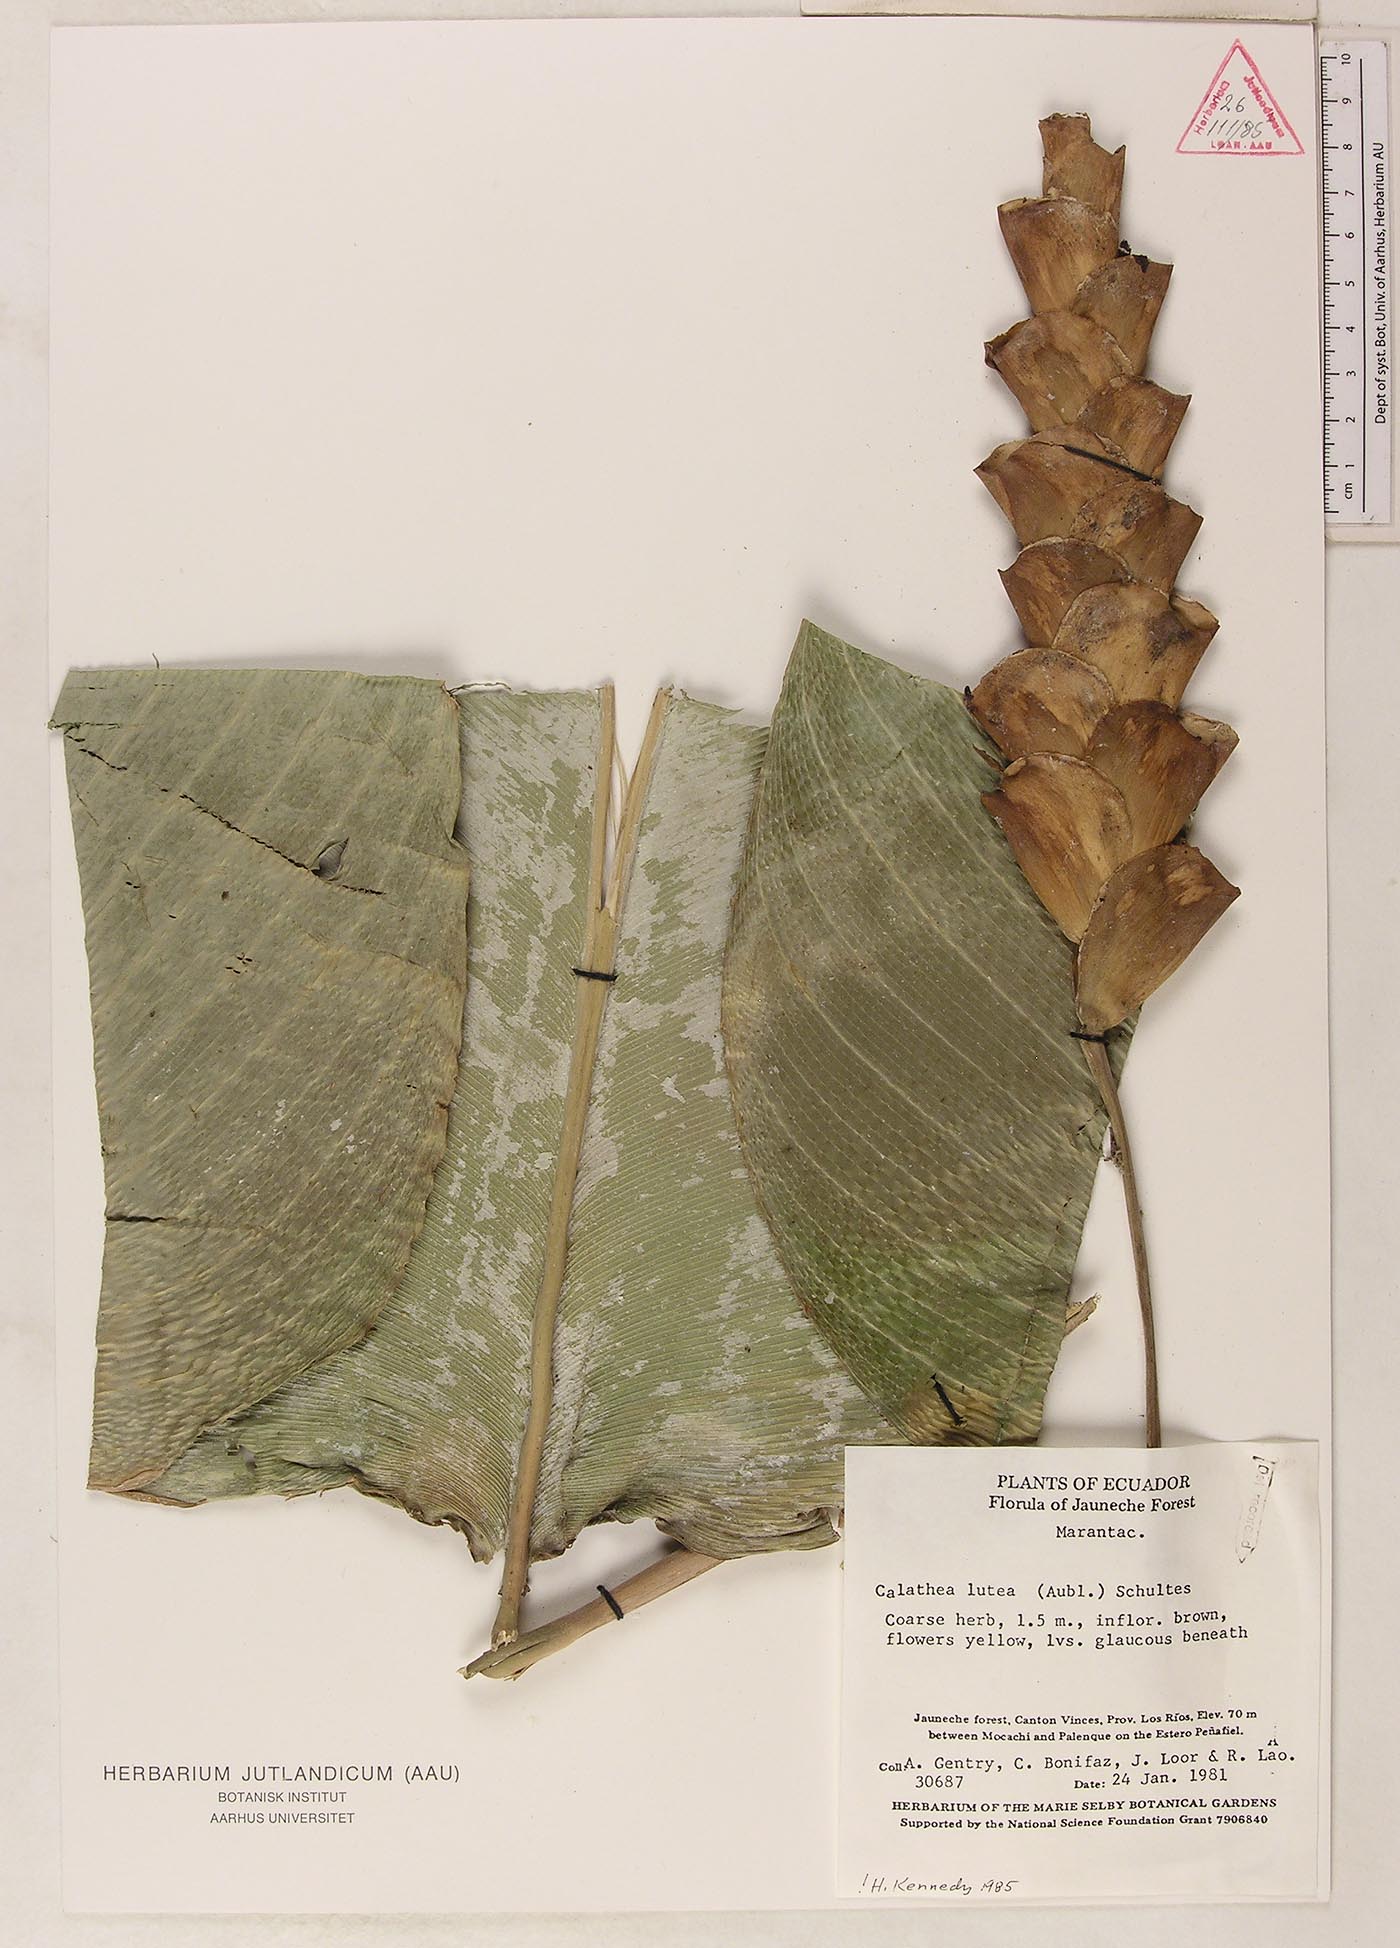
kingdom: Plantae
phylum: Tracheophyta
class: Liliopsida
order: Zingiberales
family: Marantaceae
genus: Calathea
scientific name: Calathea lutea
